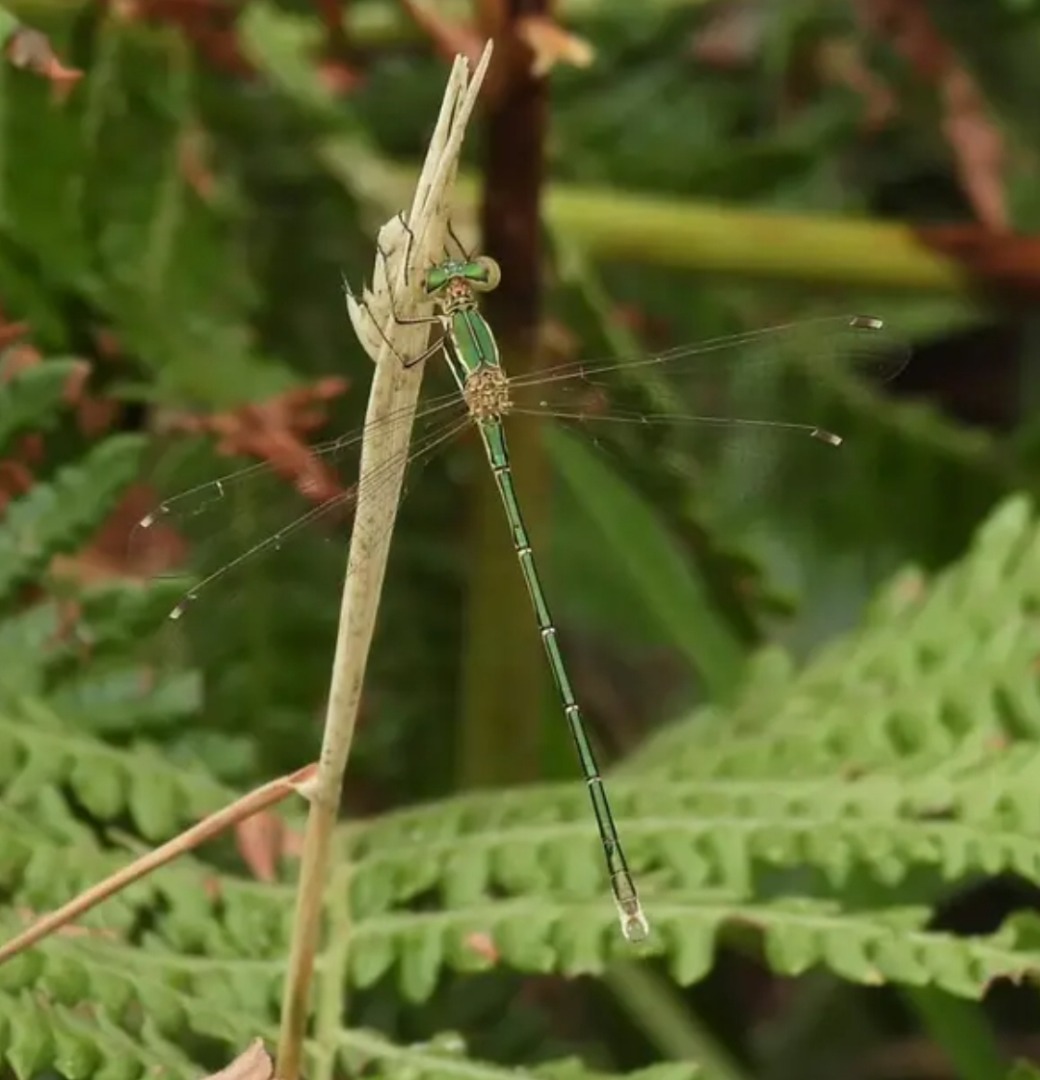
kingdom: Animalia
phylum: Arthropoda
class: Insecta
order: Odonata
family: Lestidae
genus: Lestes
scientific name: Lestes barbarus
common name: Sydlig kobbervandnymfe
